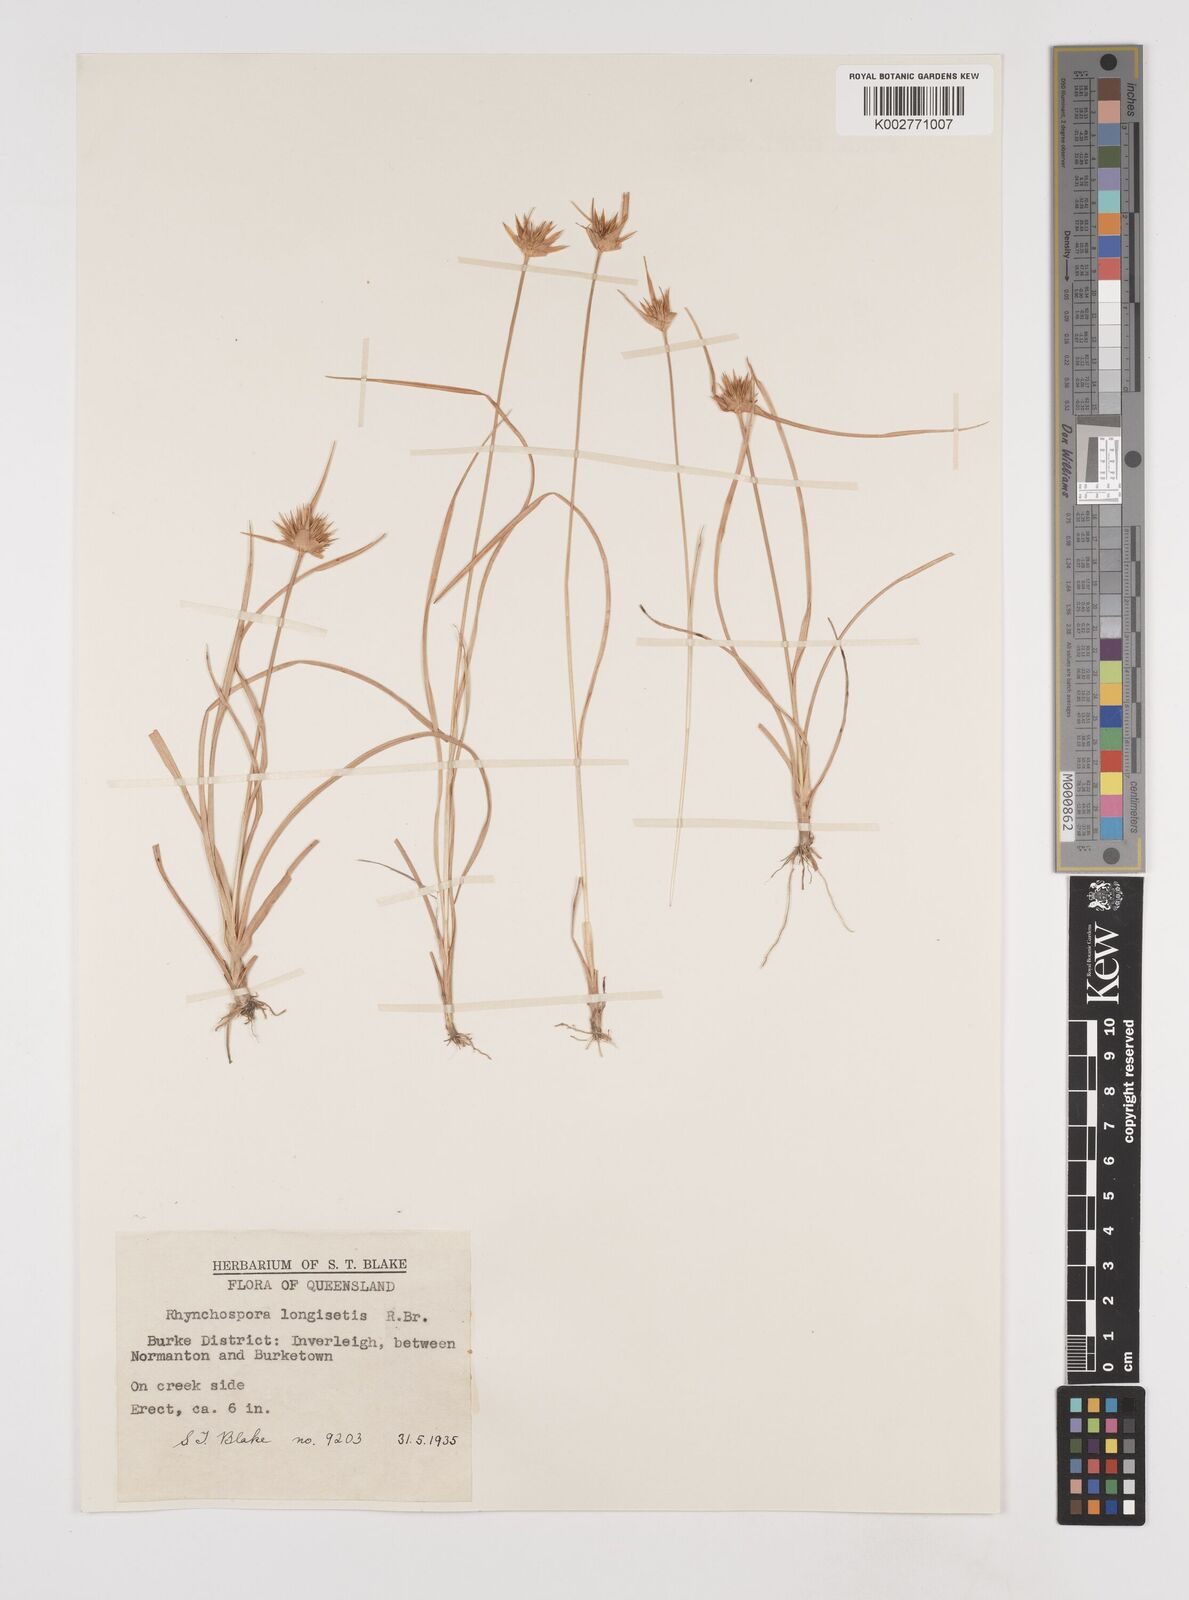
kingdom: Plantae
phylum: Tracheophyta
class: Liliopsida
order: Poales
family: Cyperaceae
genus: Rhynchospora
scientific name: Rhynchospora longisetis
